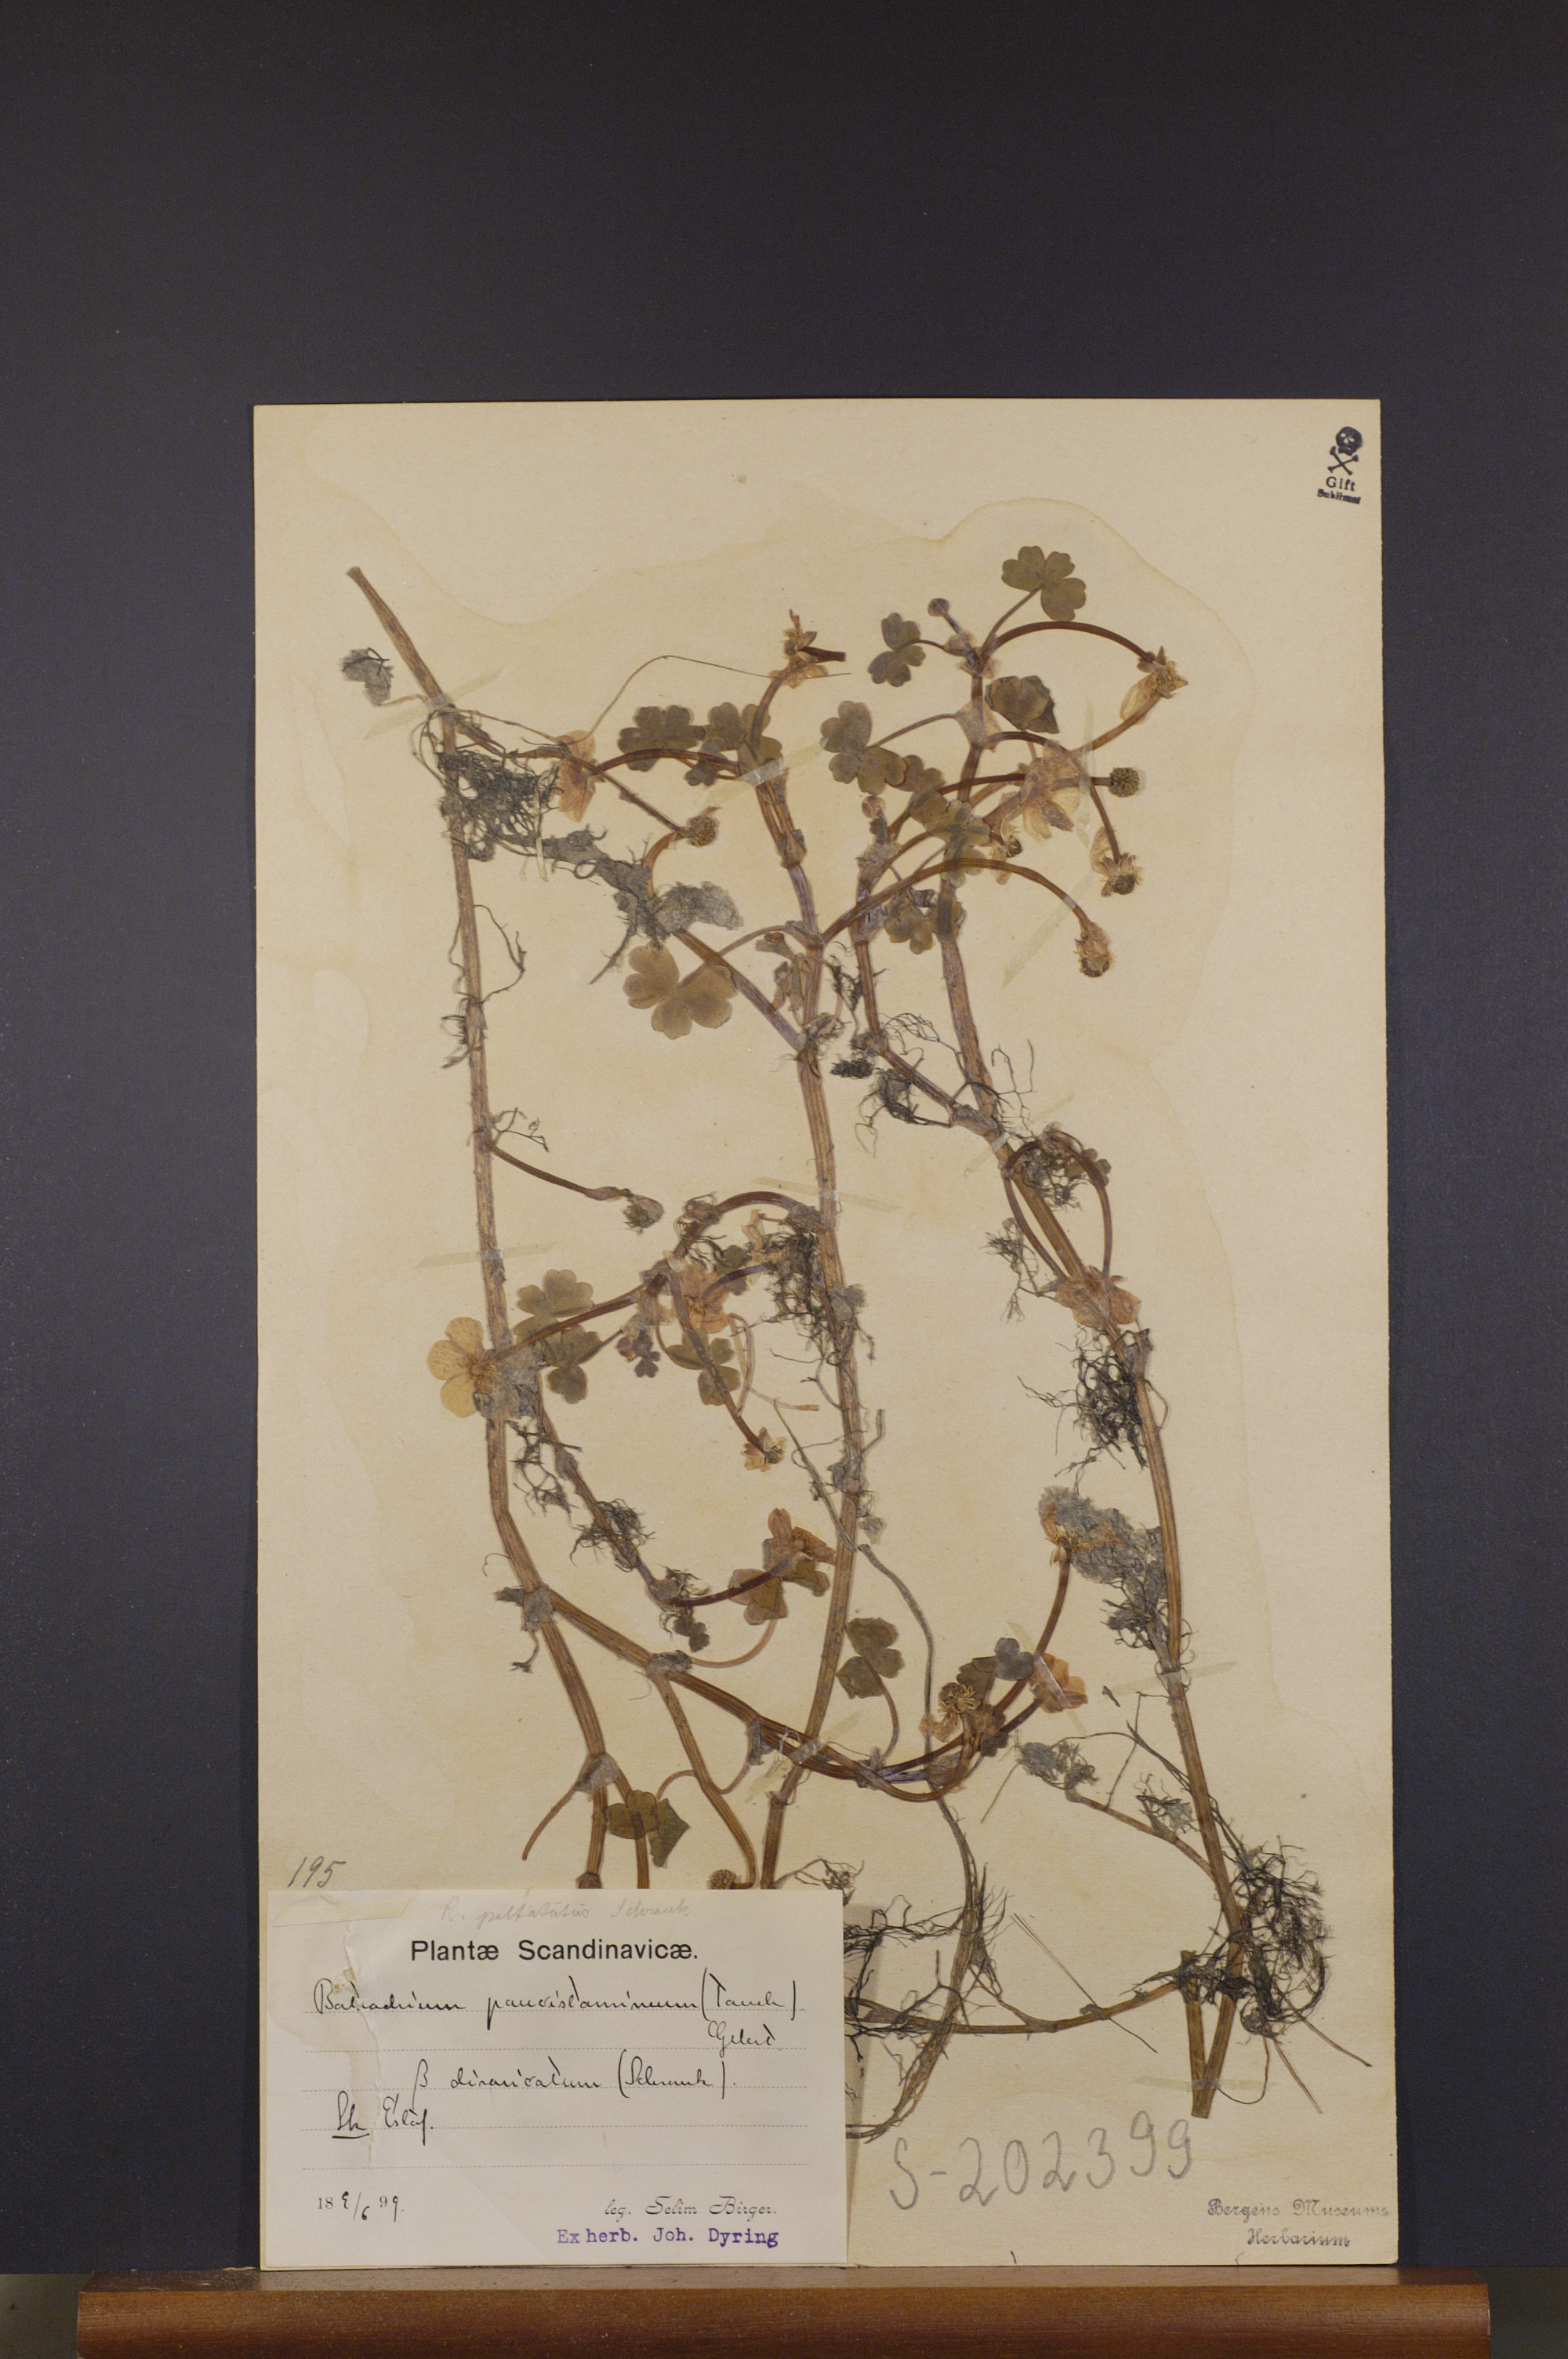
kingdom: Plantae
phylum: Tracheophyta
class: Magnoliopsida
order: Ranunculales
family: Ranunculaceae
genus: Ranunculus
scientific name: Ranunculus aquatilis
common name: Common water-crowfoot
